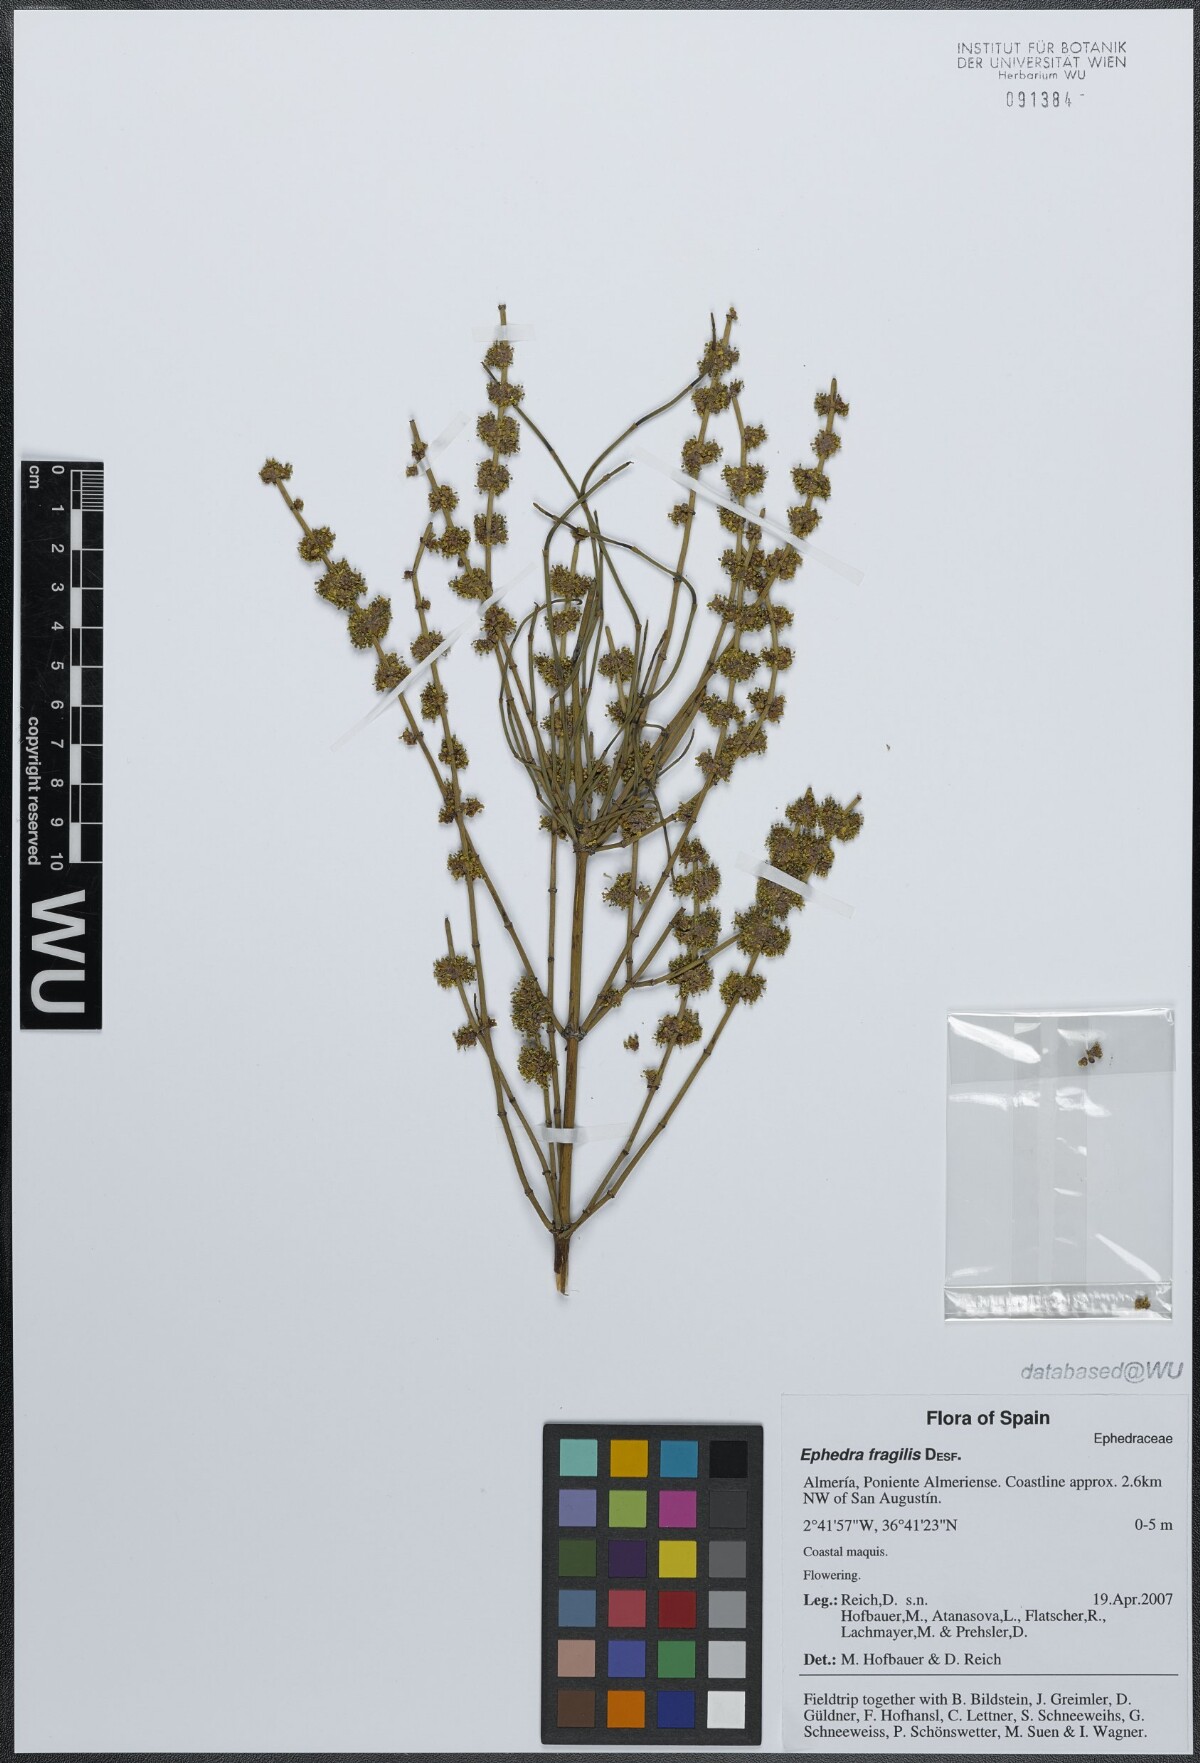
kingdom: Plantae
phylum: Tracheophyta
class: Gnetopsida
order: Ephedrales
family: Ephedraceae
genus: Ephedra
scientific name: Ephedra fragilis
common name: Joint pine
